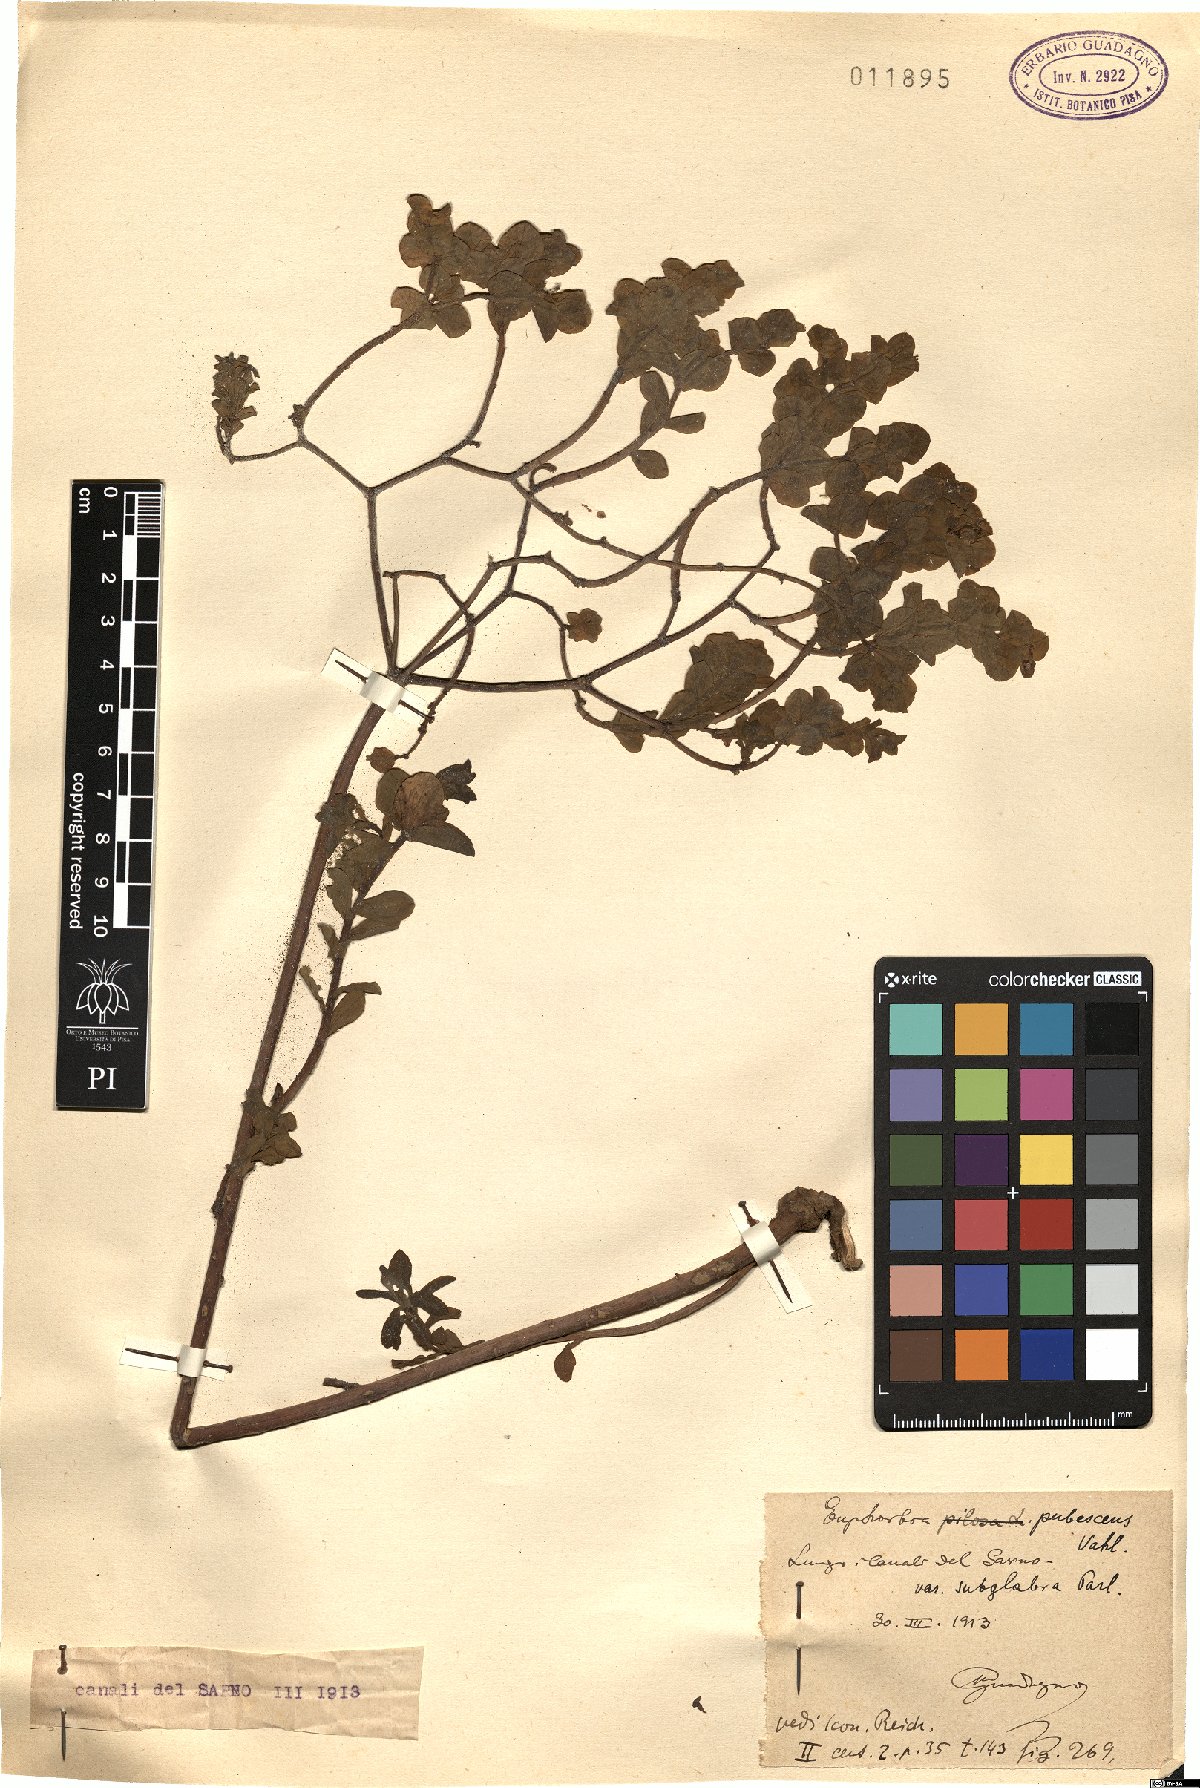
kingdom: Plantae
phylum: Tracheophyta
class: Magnoliopsida
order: Malpighiales
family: Euphorbiaceae
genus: Euphorbia
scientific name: Euphorbia hirsuta
